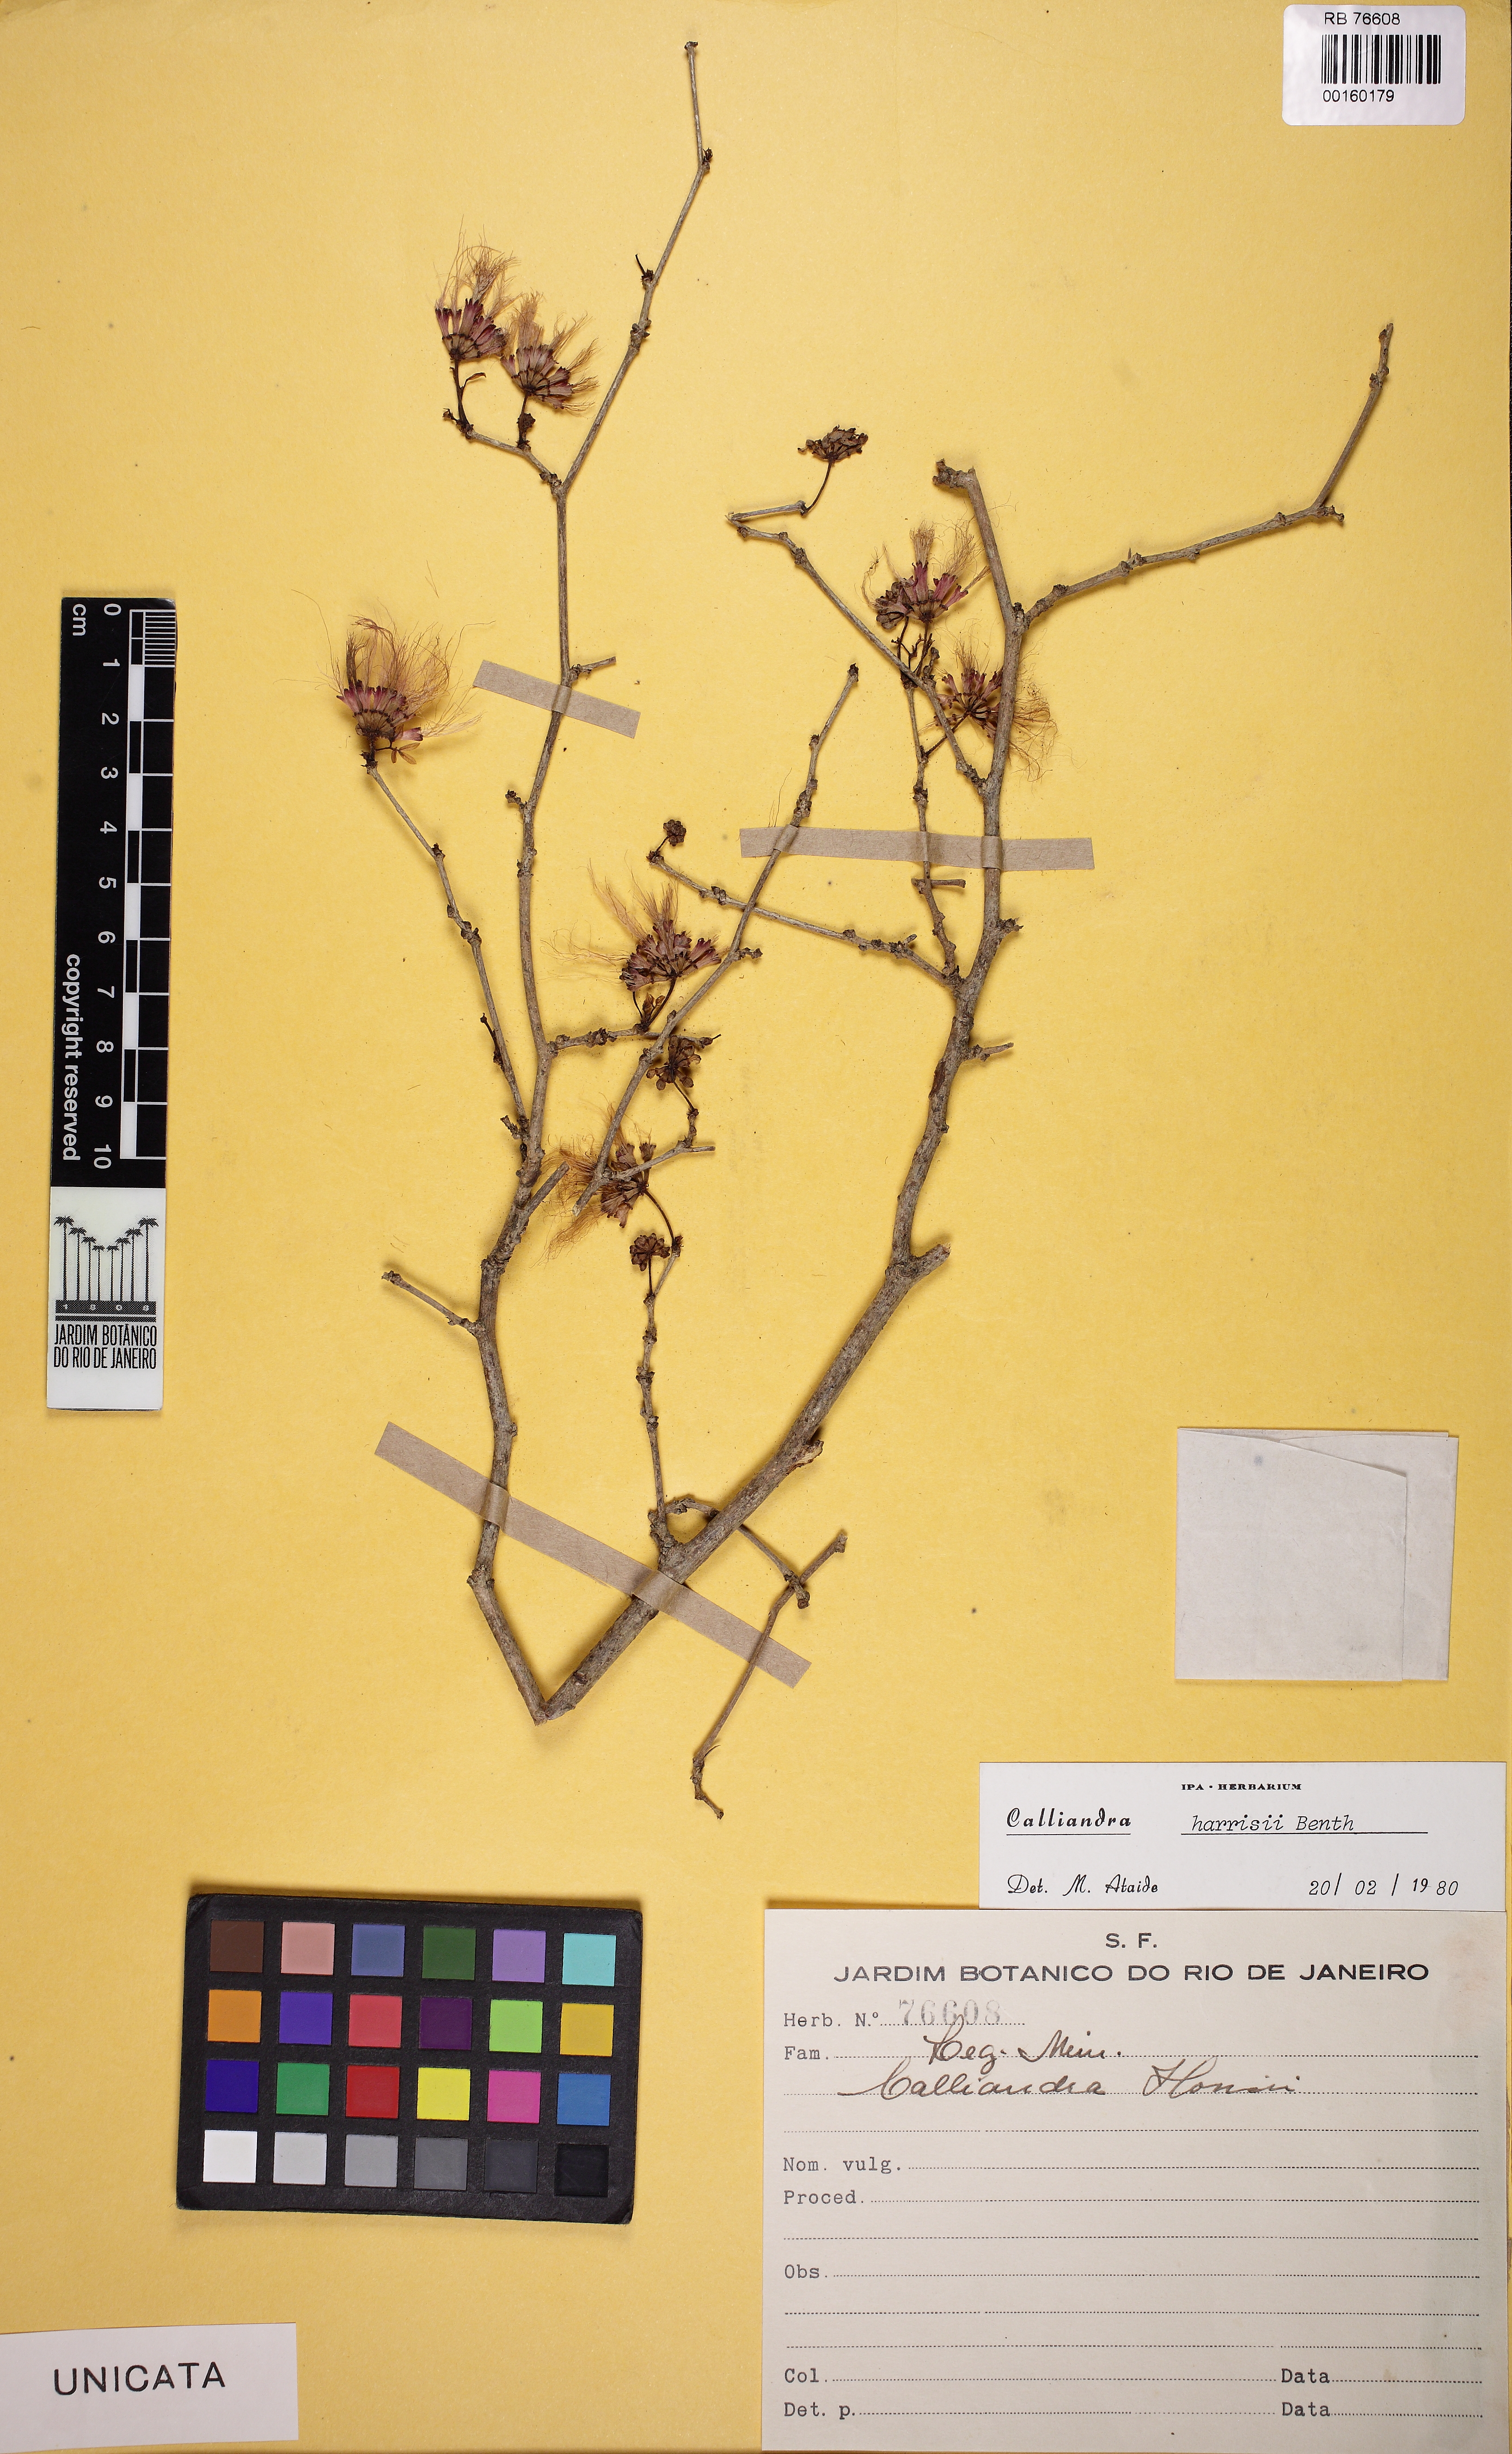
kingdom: Plantae
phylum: Tracheophyta
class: Magnoliopsida
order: Fabales
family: Fabaceae
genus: Calliandra
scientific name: Calliandra harrisii
